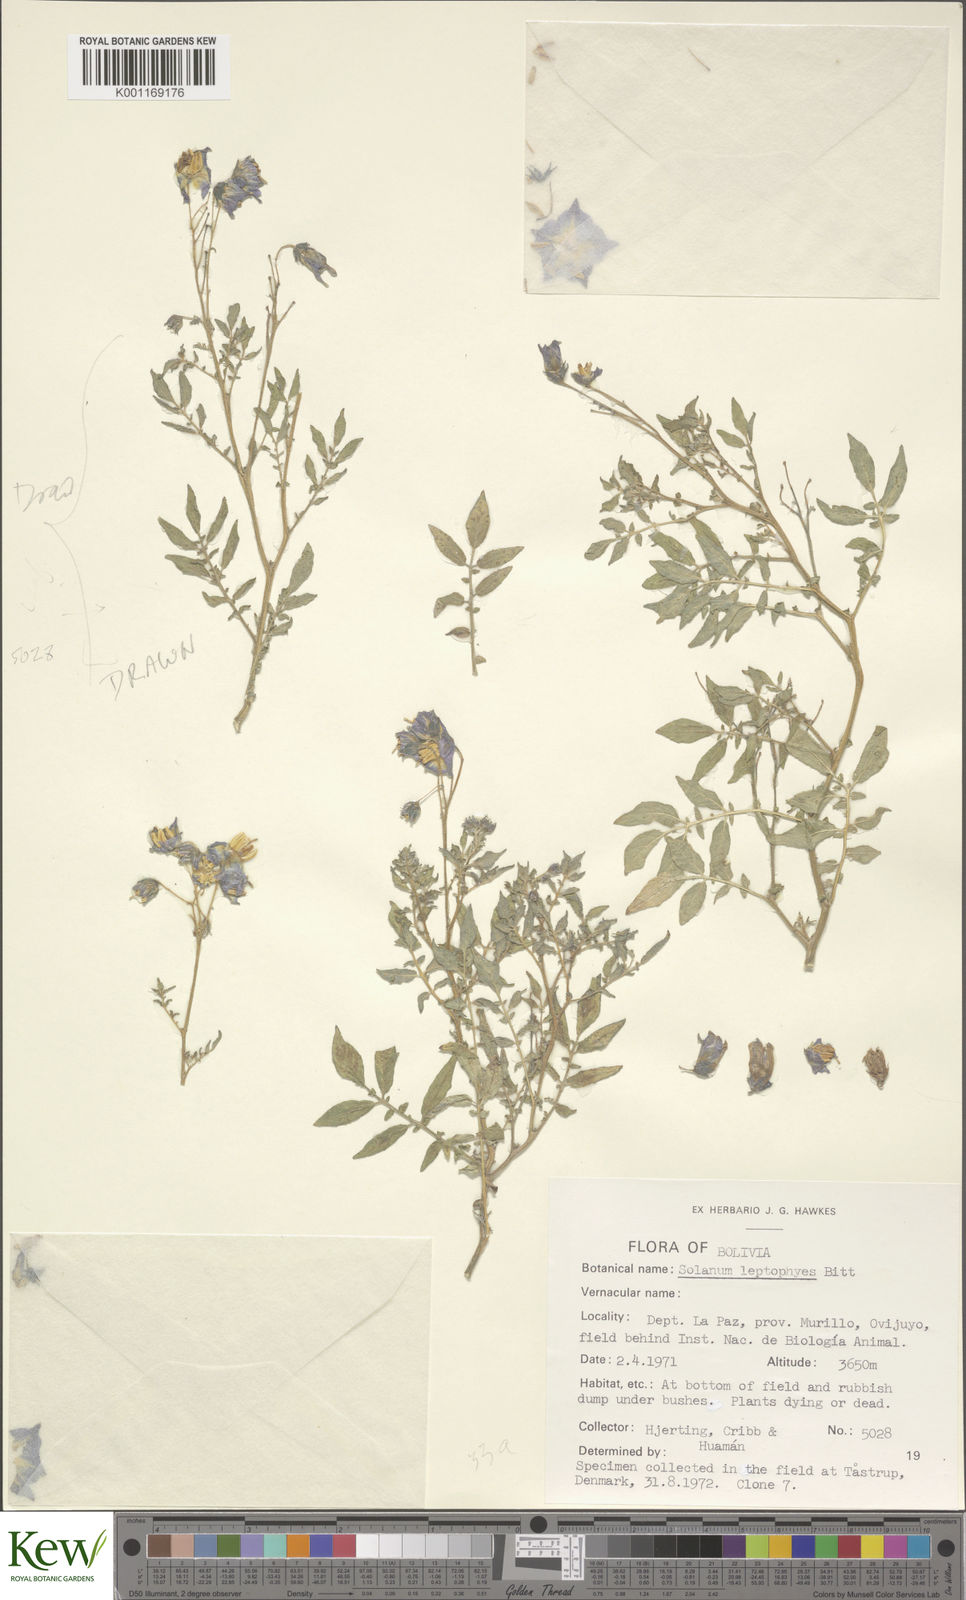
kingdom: Plantae
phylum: Tracheophyta
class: Magnoliopsida
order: Solanales
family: Solanaceae
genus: Solanum
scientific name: Solanum brevicaule
